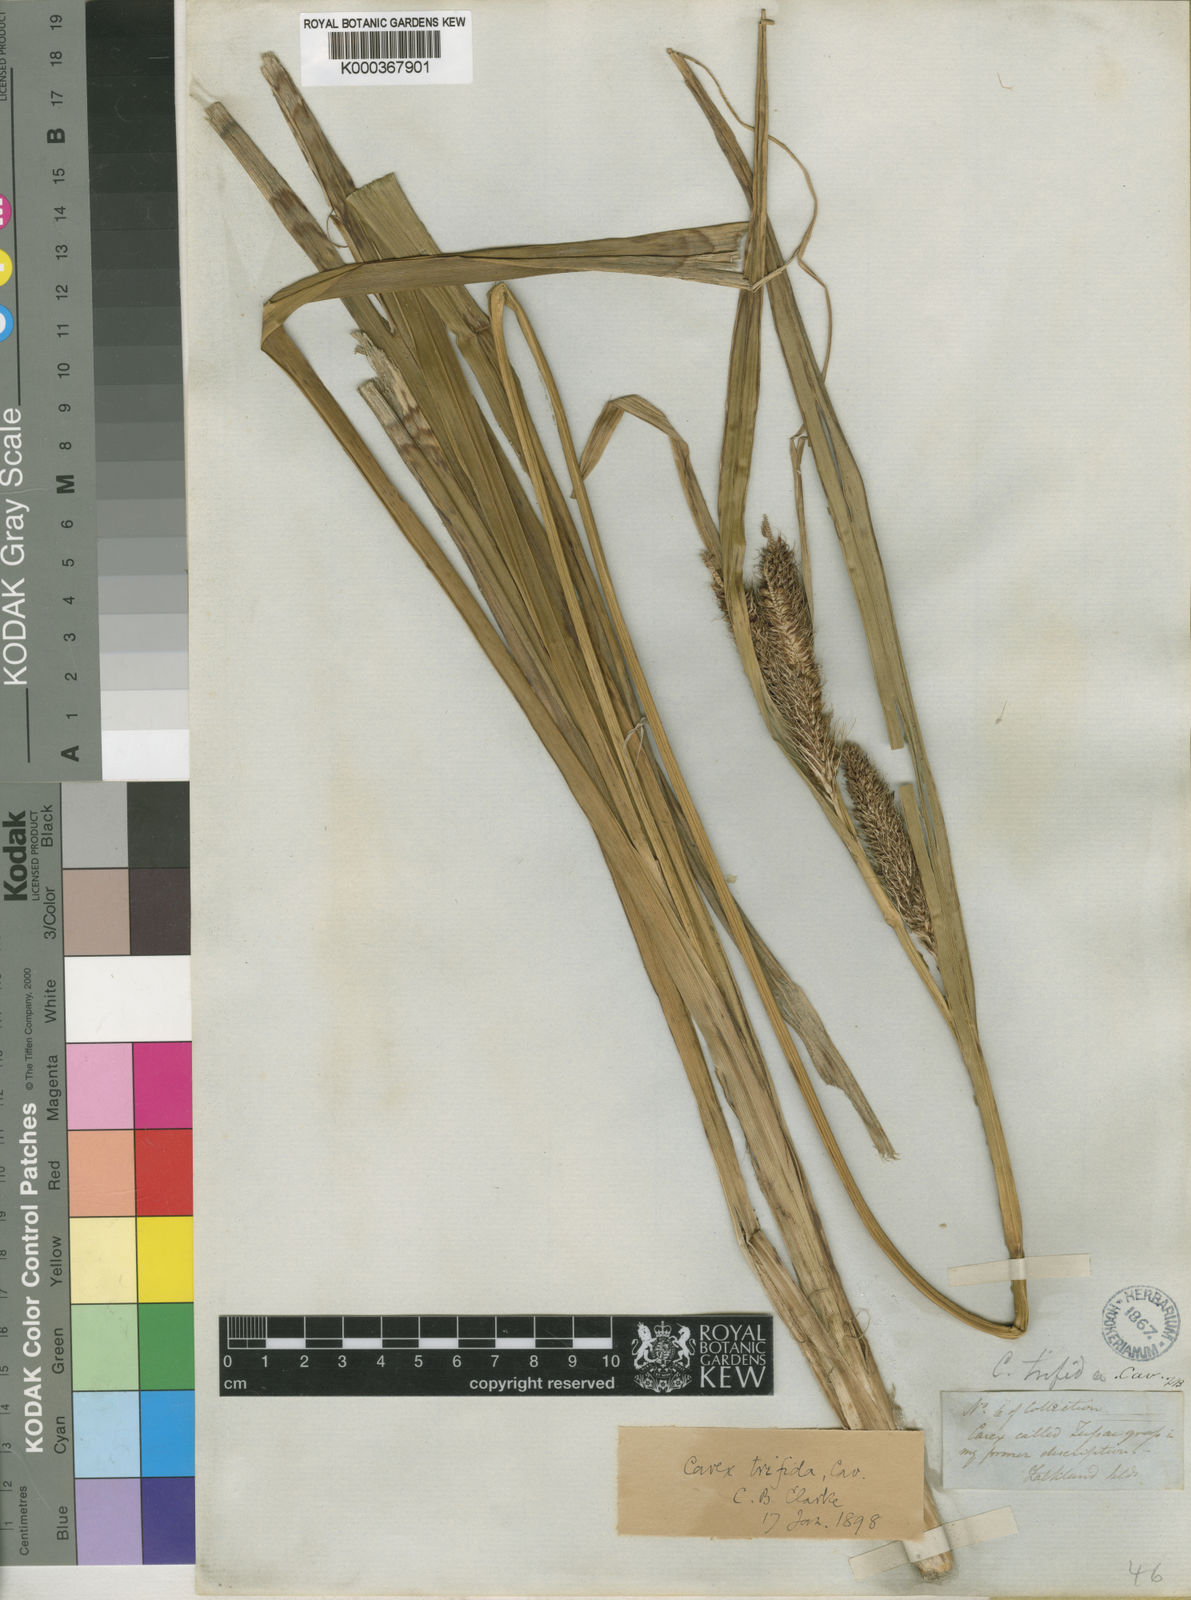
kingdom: Plantae
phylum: Tracheophyta
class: Liliopsida
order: Poales
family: Cyperaceae
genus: Carex
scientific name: Carex trifida
